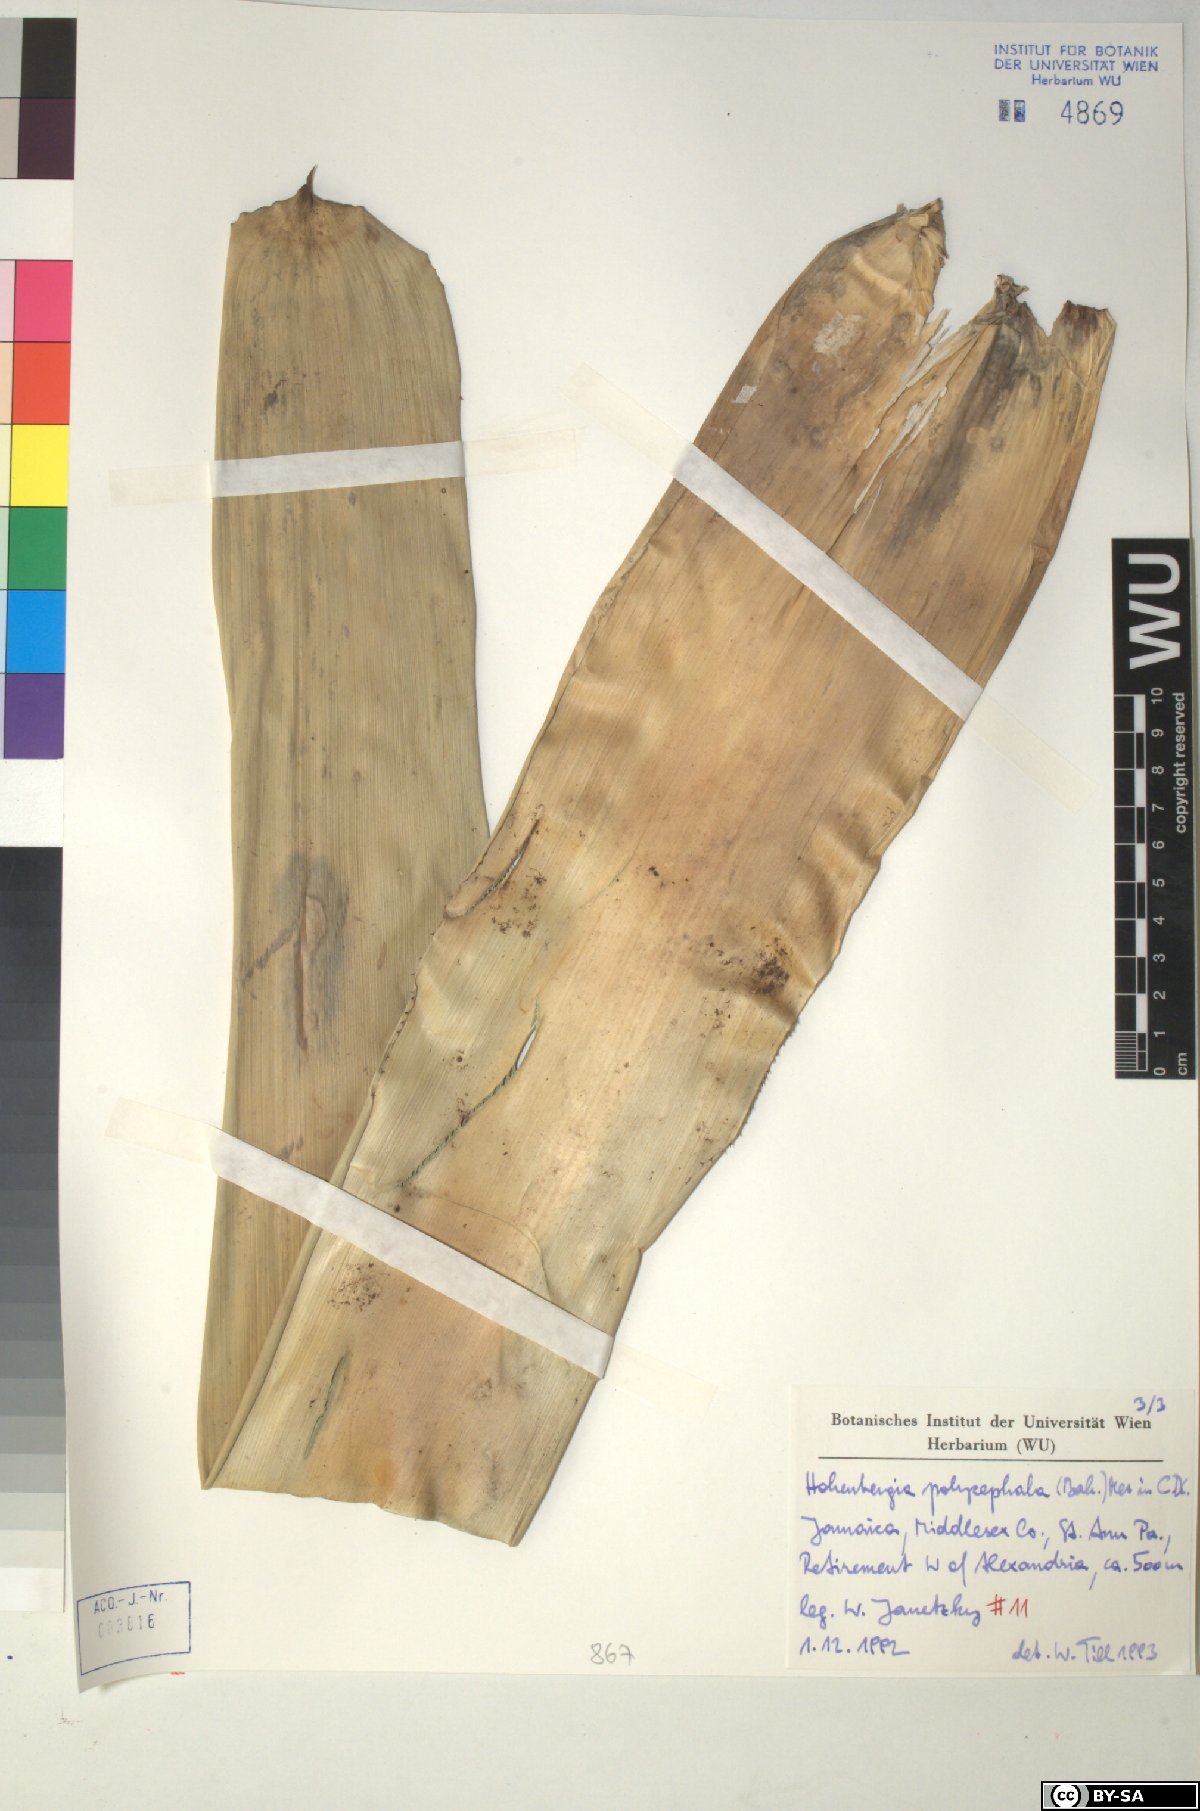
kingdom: Plantae
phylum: Tracheophyta
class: Liliopsida
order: Poales
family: Bromeliaceae
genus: Wittmackia
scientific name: Wittmackia polycephala
